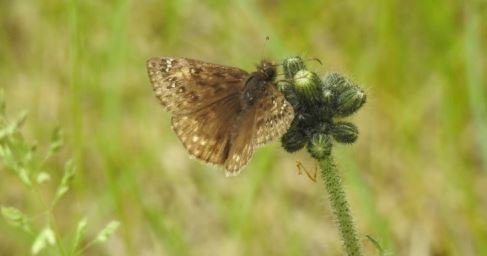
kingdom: Animalia
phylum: Arthropoda
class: Insecta
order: Lepidoptera
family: Hesperiidae
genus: Gesta
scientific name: Gesta
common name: Juvenal's Duskywing
